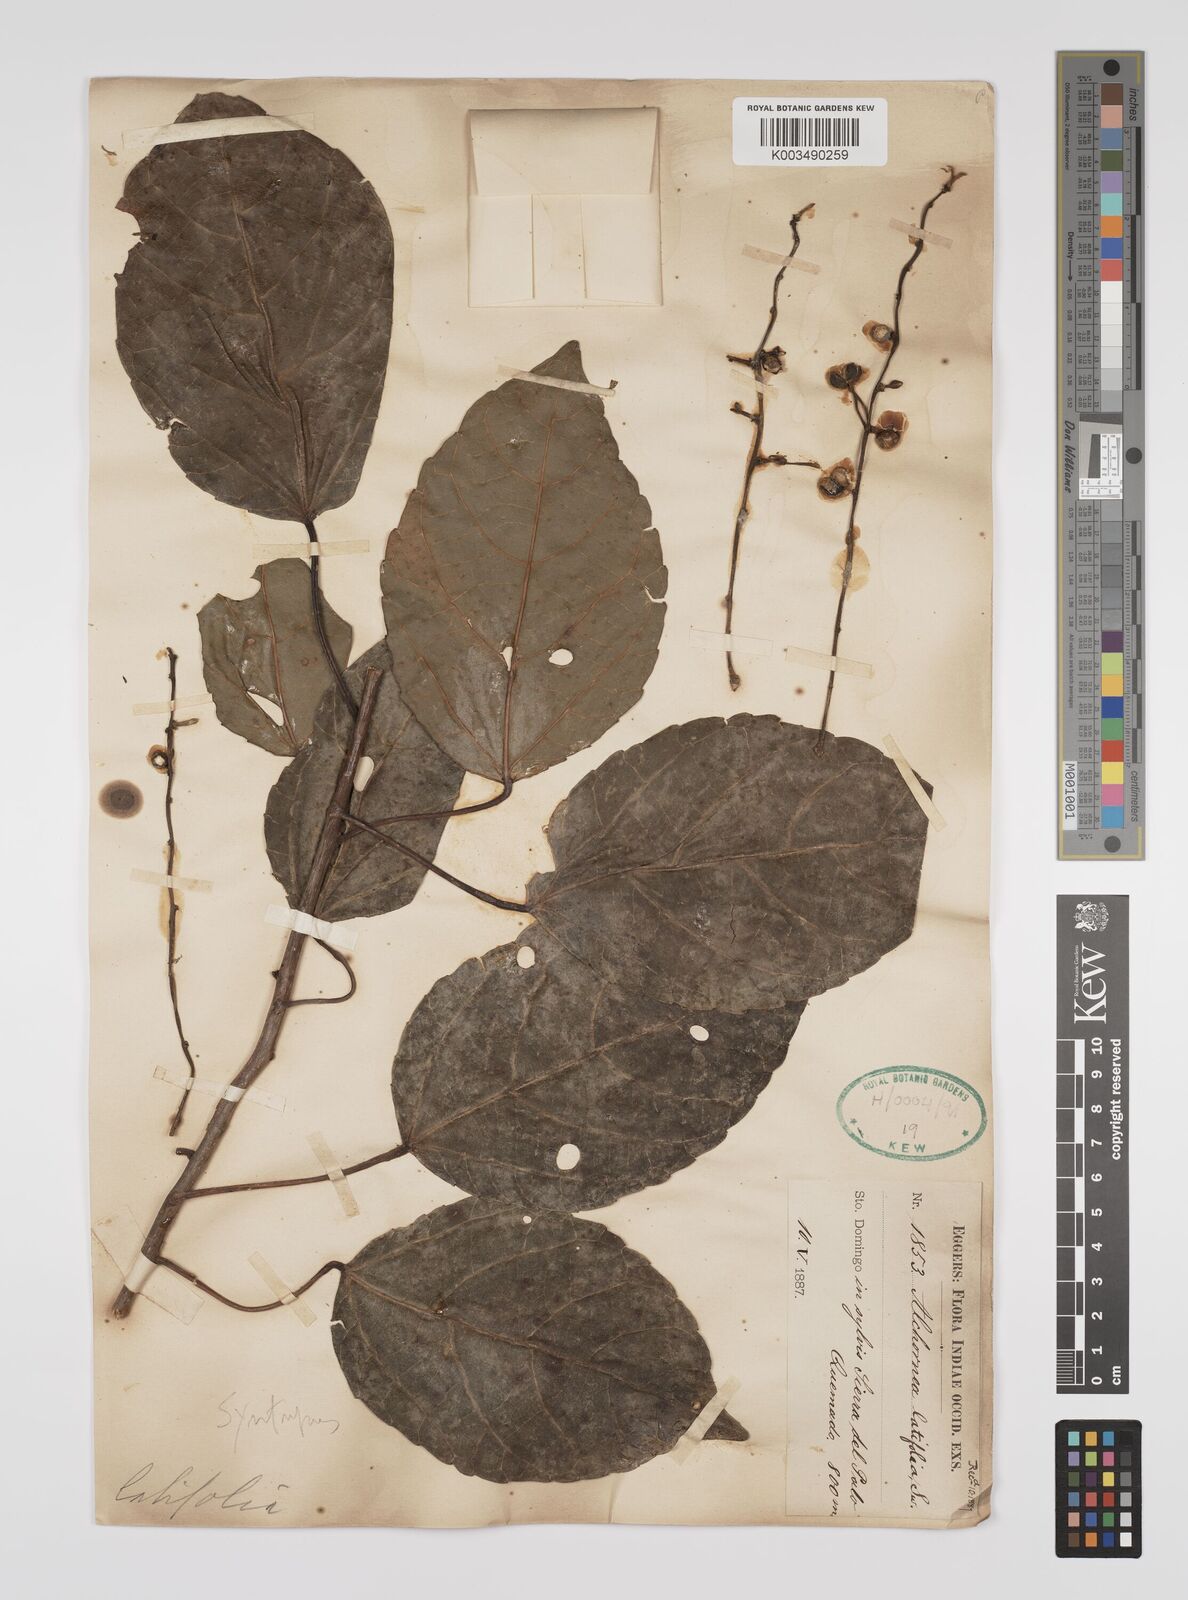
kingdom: Plantae
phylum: Tracheophyta
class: Magnoliopsida
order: Malpighiales
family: Euphorbiaceae
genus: Alchornea
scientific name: Alchornea latifolia
